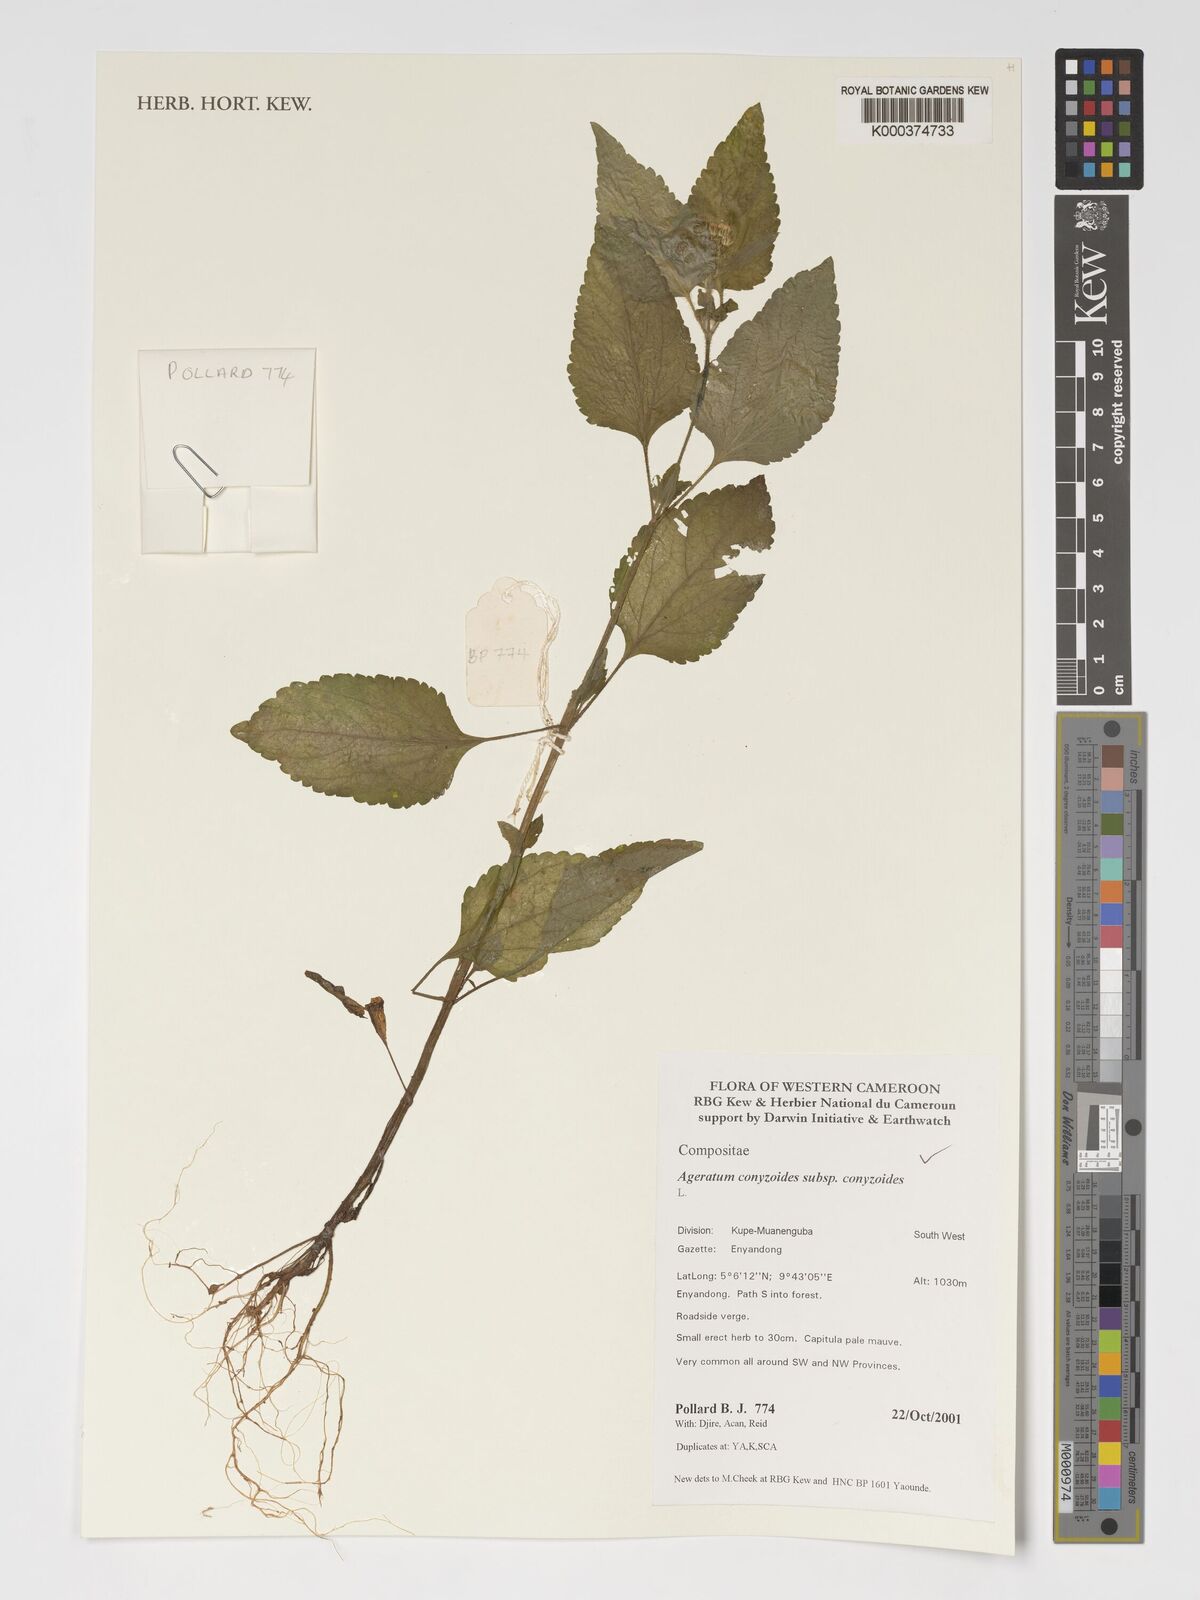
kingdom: Plantae
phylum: Tracheophyta
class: Magnoliopsida
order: Asterales
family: Asteraceae
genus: Ageratum
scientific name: Ageratum conyzoides
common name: Tropical whiteweed
